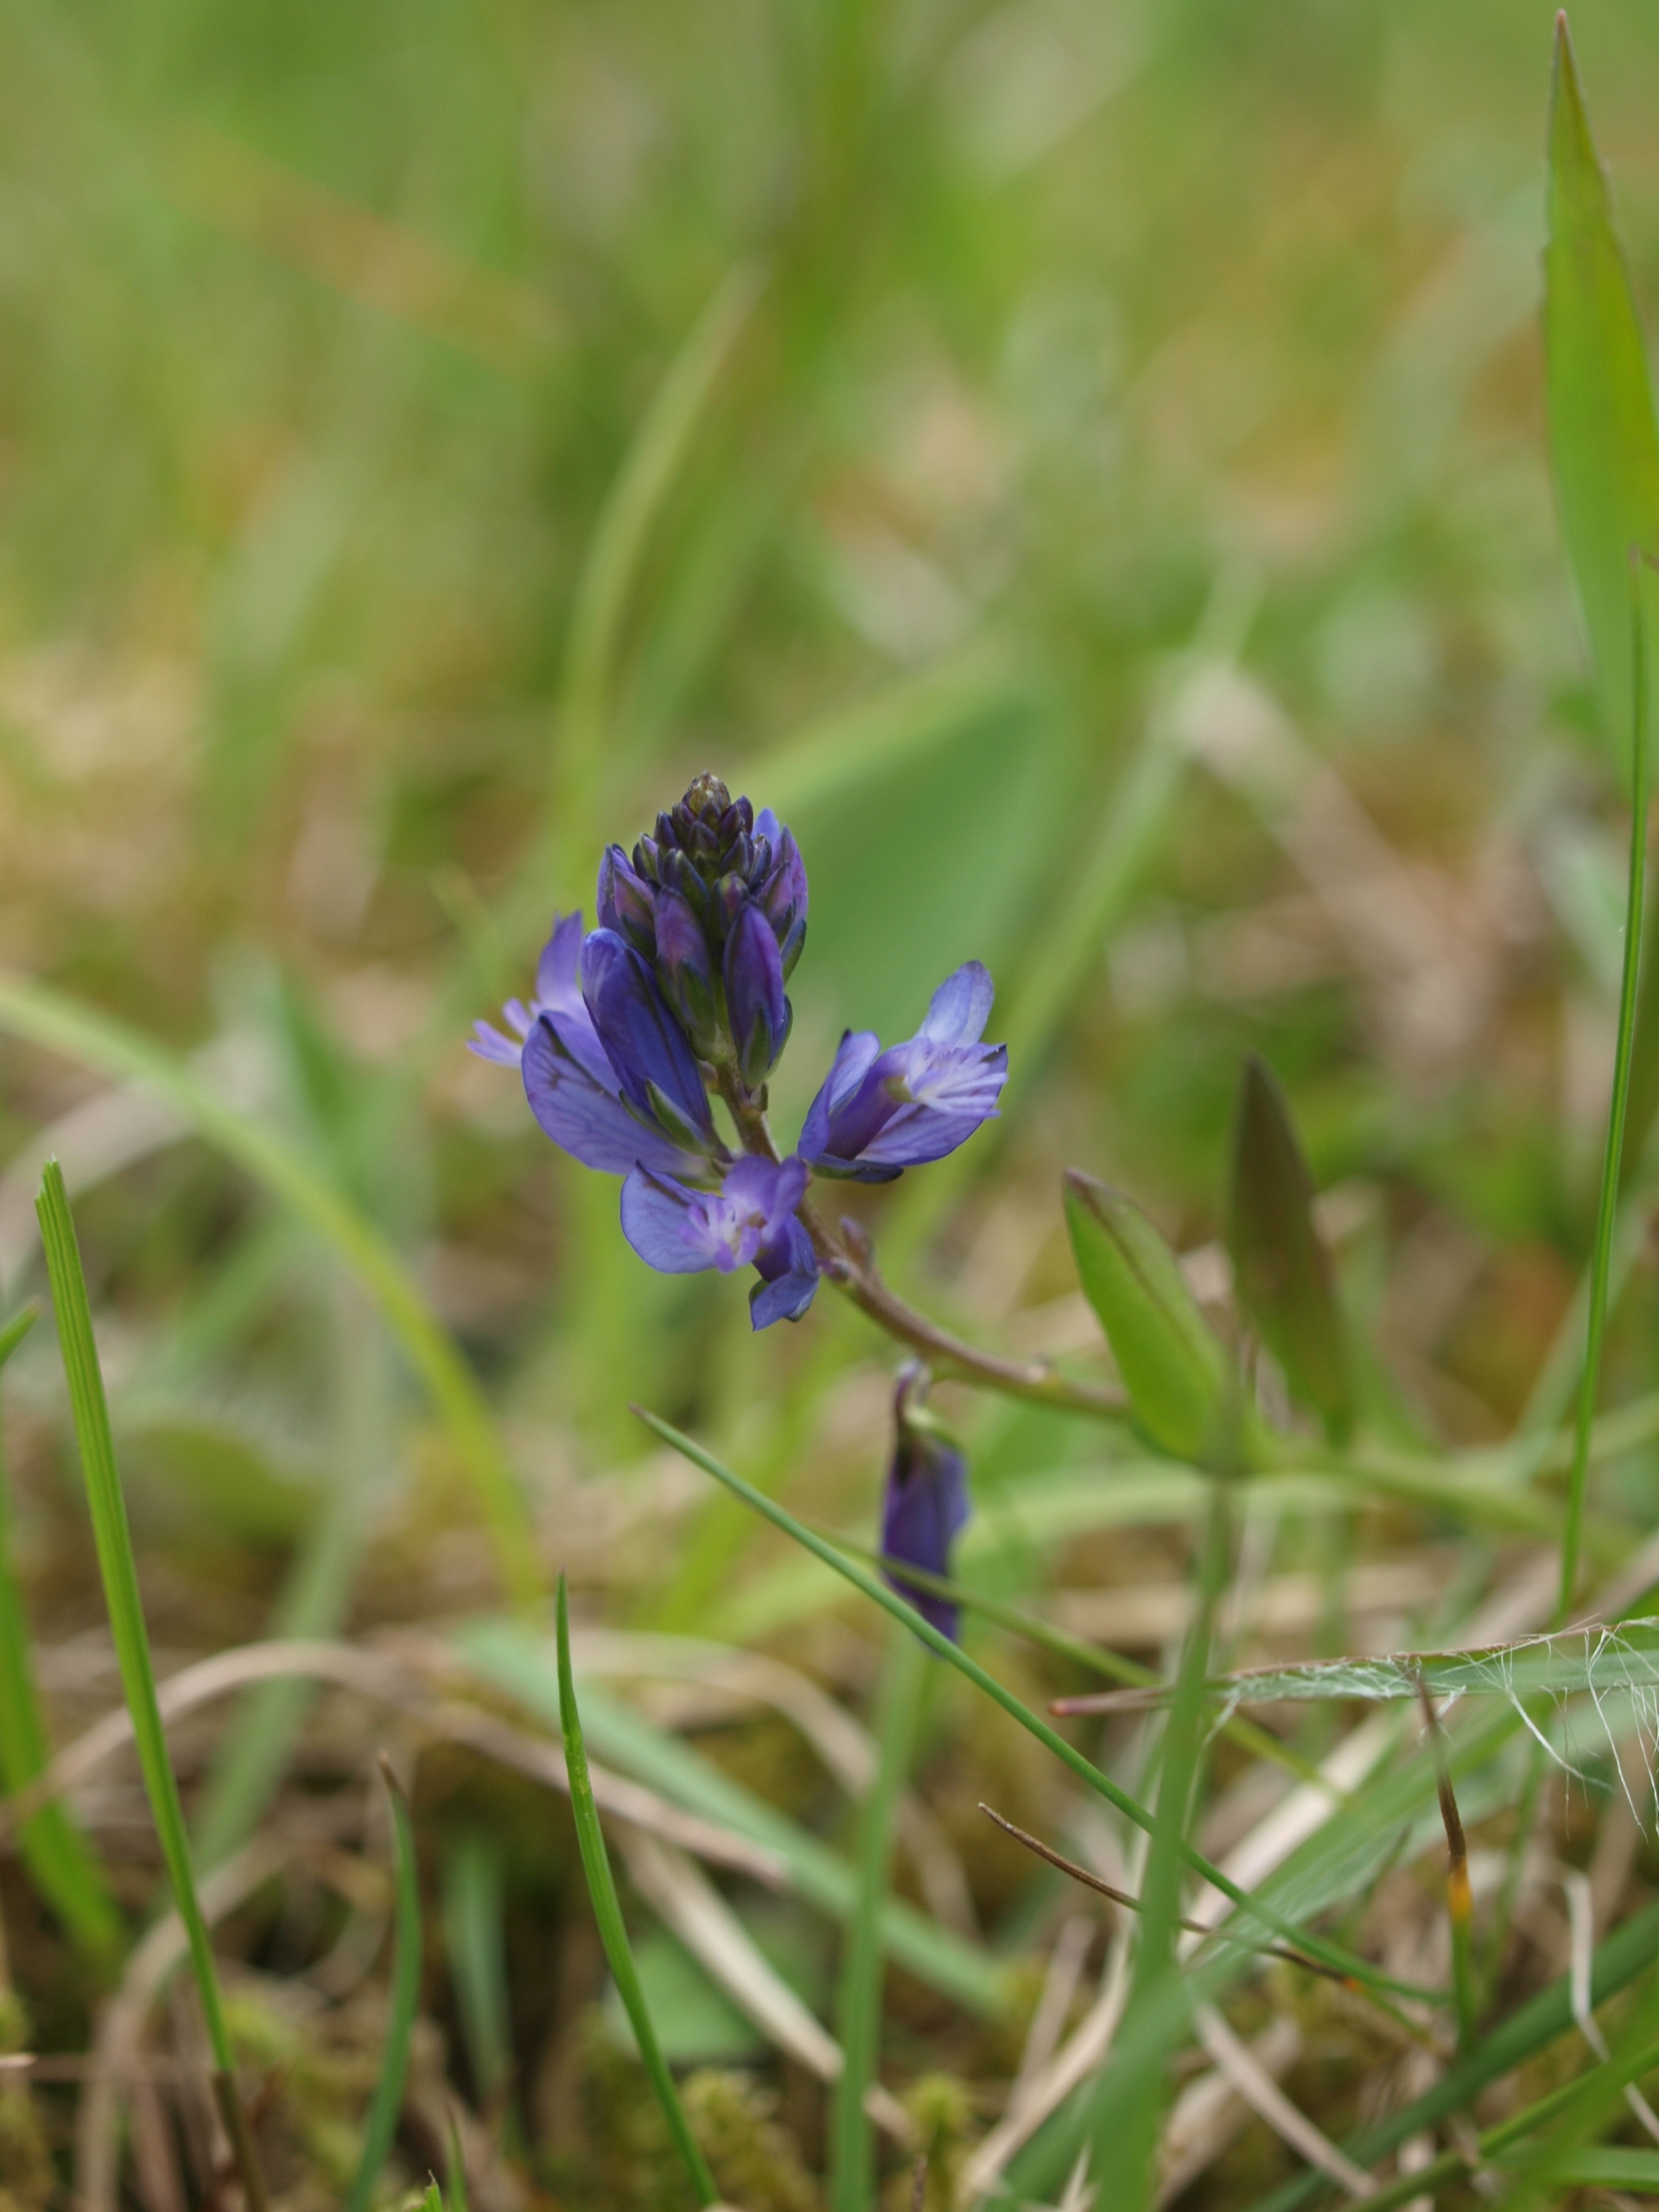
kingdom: Plantae
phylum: Tracheophyta
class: Magnoliopsida
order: Fabales
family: Polygalaceae
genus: Polygala
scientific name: Polygala vulgaris
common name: Almindelig mælkeurt
